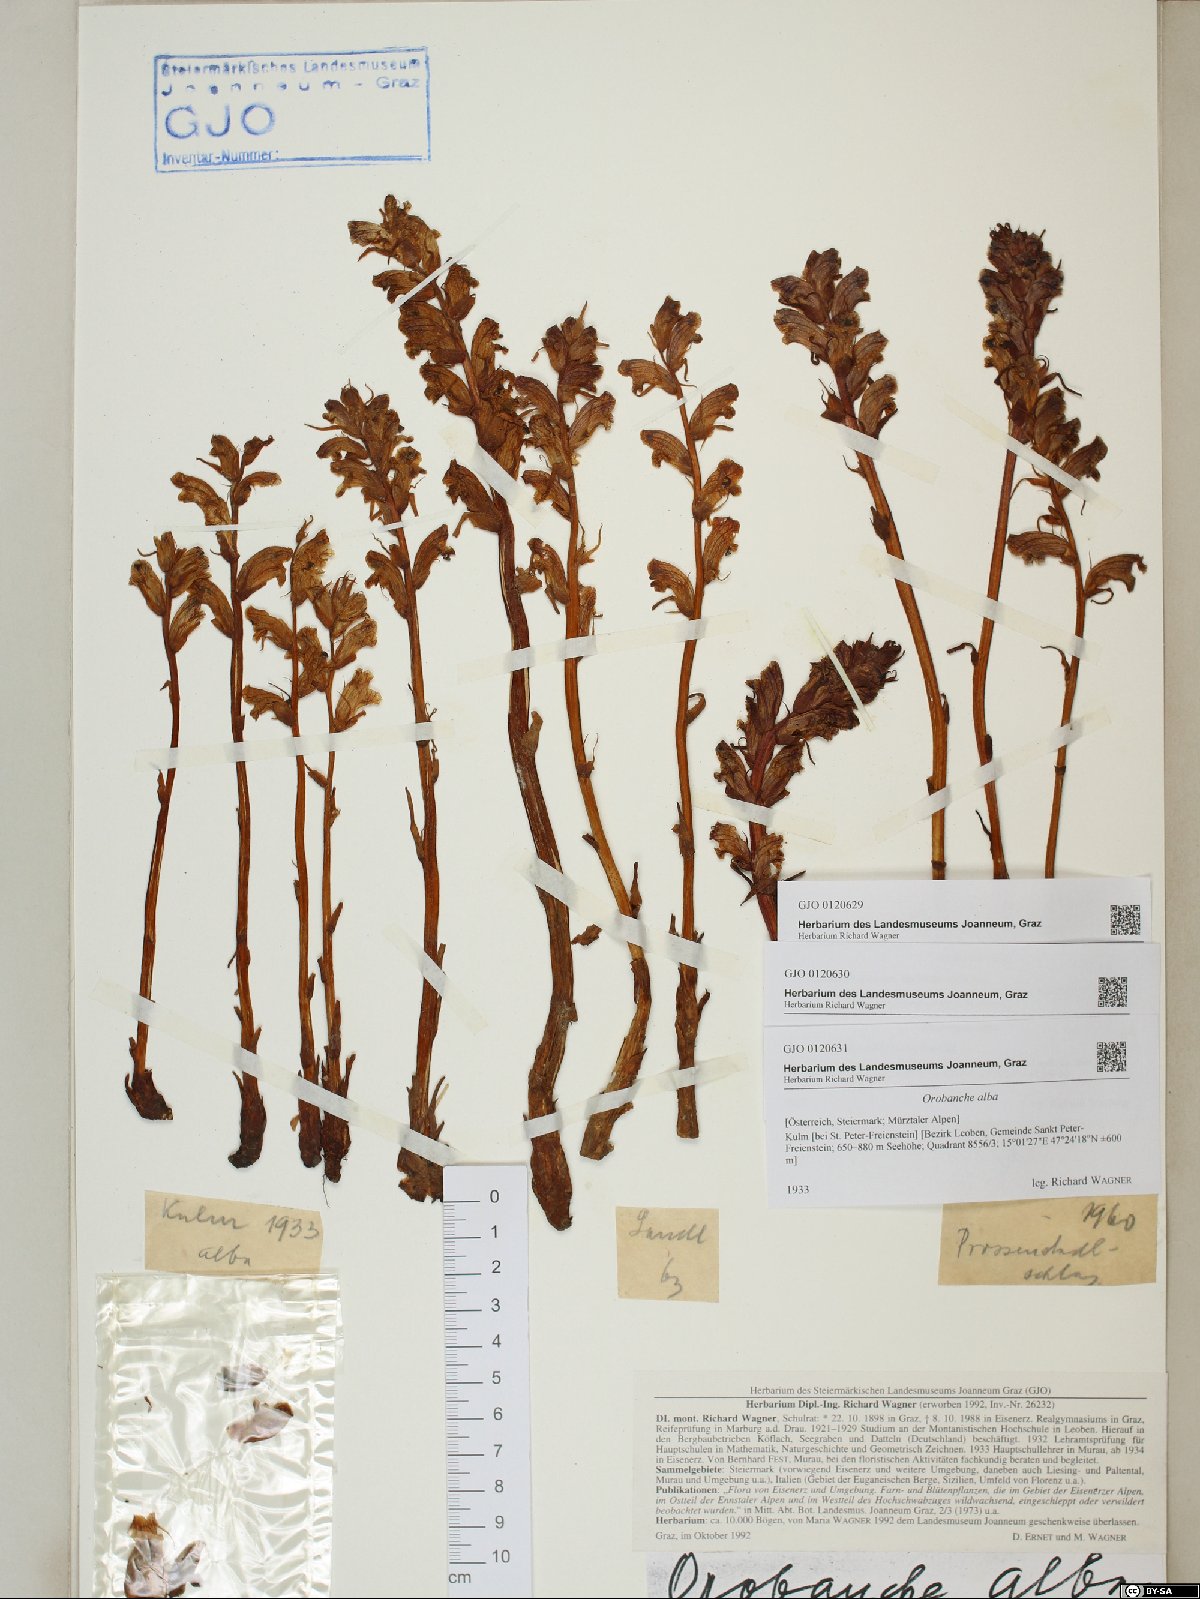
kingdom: Plantae
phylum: Tracheophyta
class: Magnoliopsida
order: Lamiales
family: Orobanchaceae
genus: Orobanche
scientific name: Orobanche alba
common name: Thyme broomrape
